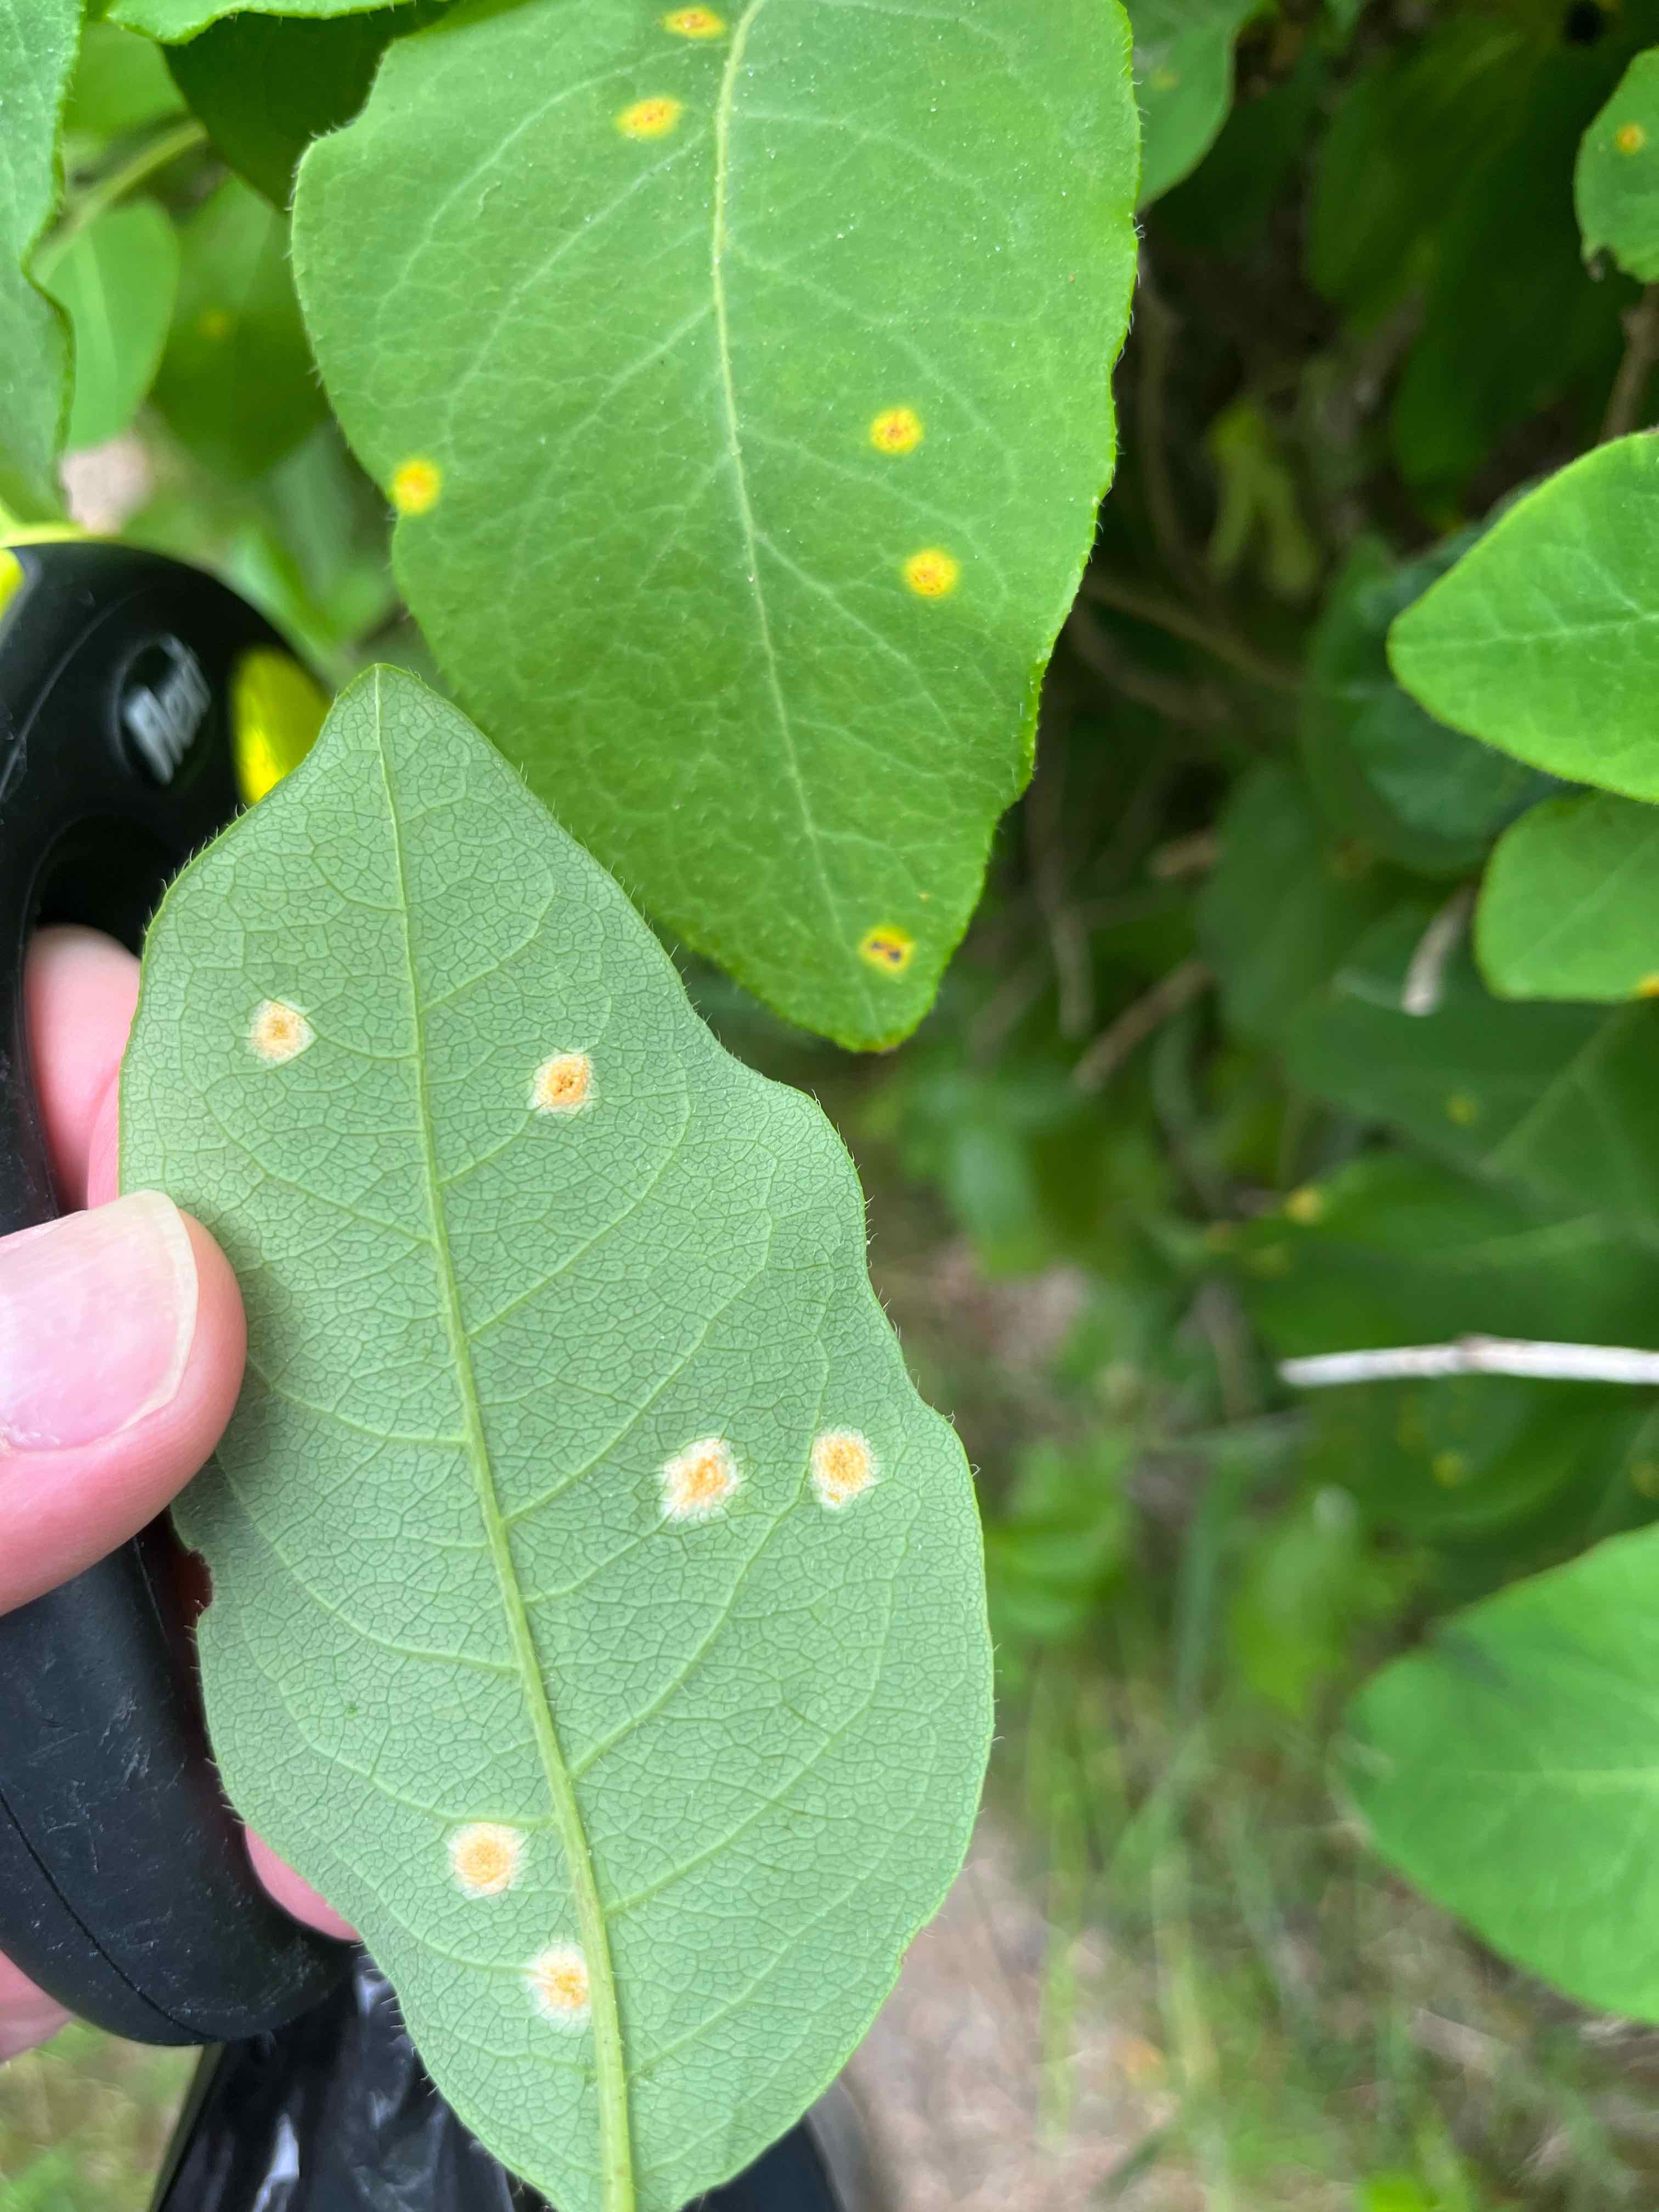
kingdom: Fungi
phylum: Basidiomycota
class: Pucciniomycetes
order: Pucciniales
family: Pucciniaceae
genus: Puccinia
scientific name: Puccinia festucae
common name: gedeblad-tvecellerust
